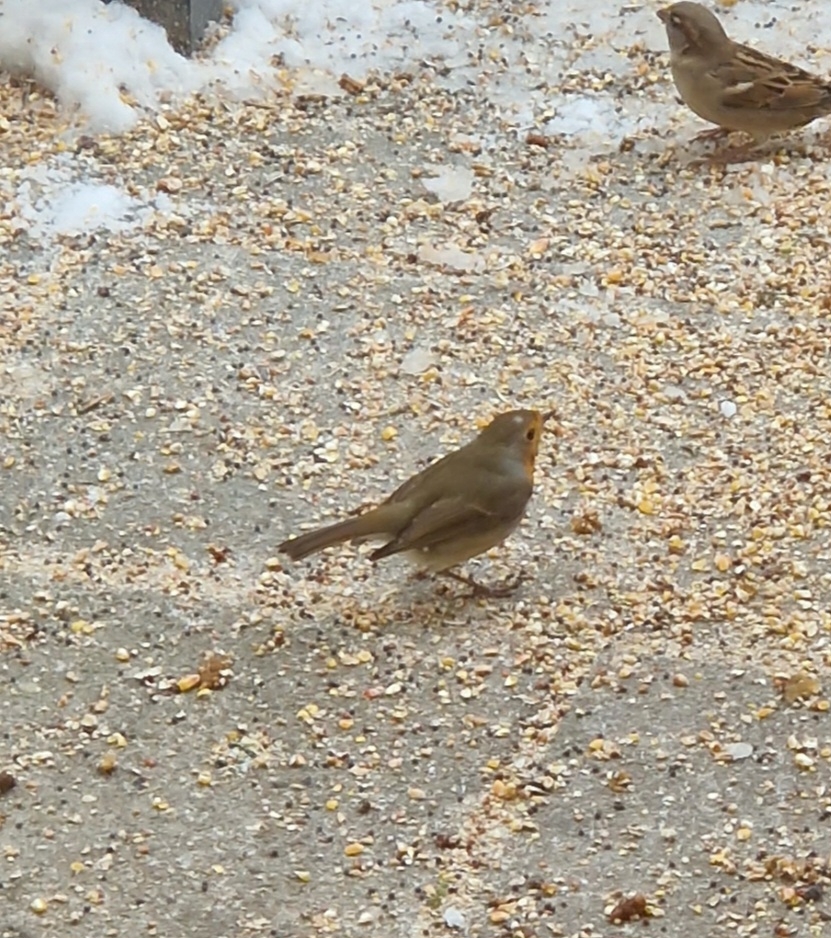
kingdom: Animalia
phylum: Chordata
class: Aves
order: Passeriformes
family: Muscicapidae
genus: Erithacus
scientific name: Erithacus rubecula
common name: Rødhals/rødkælk
